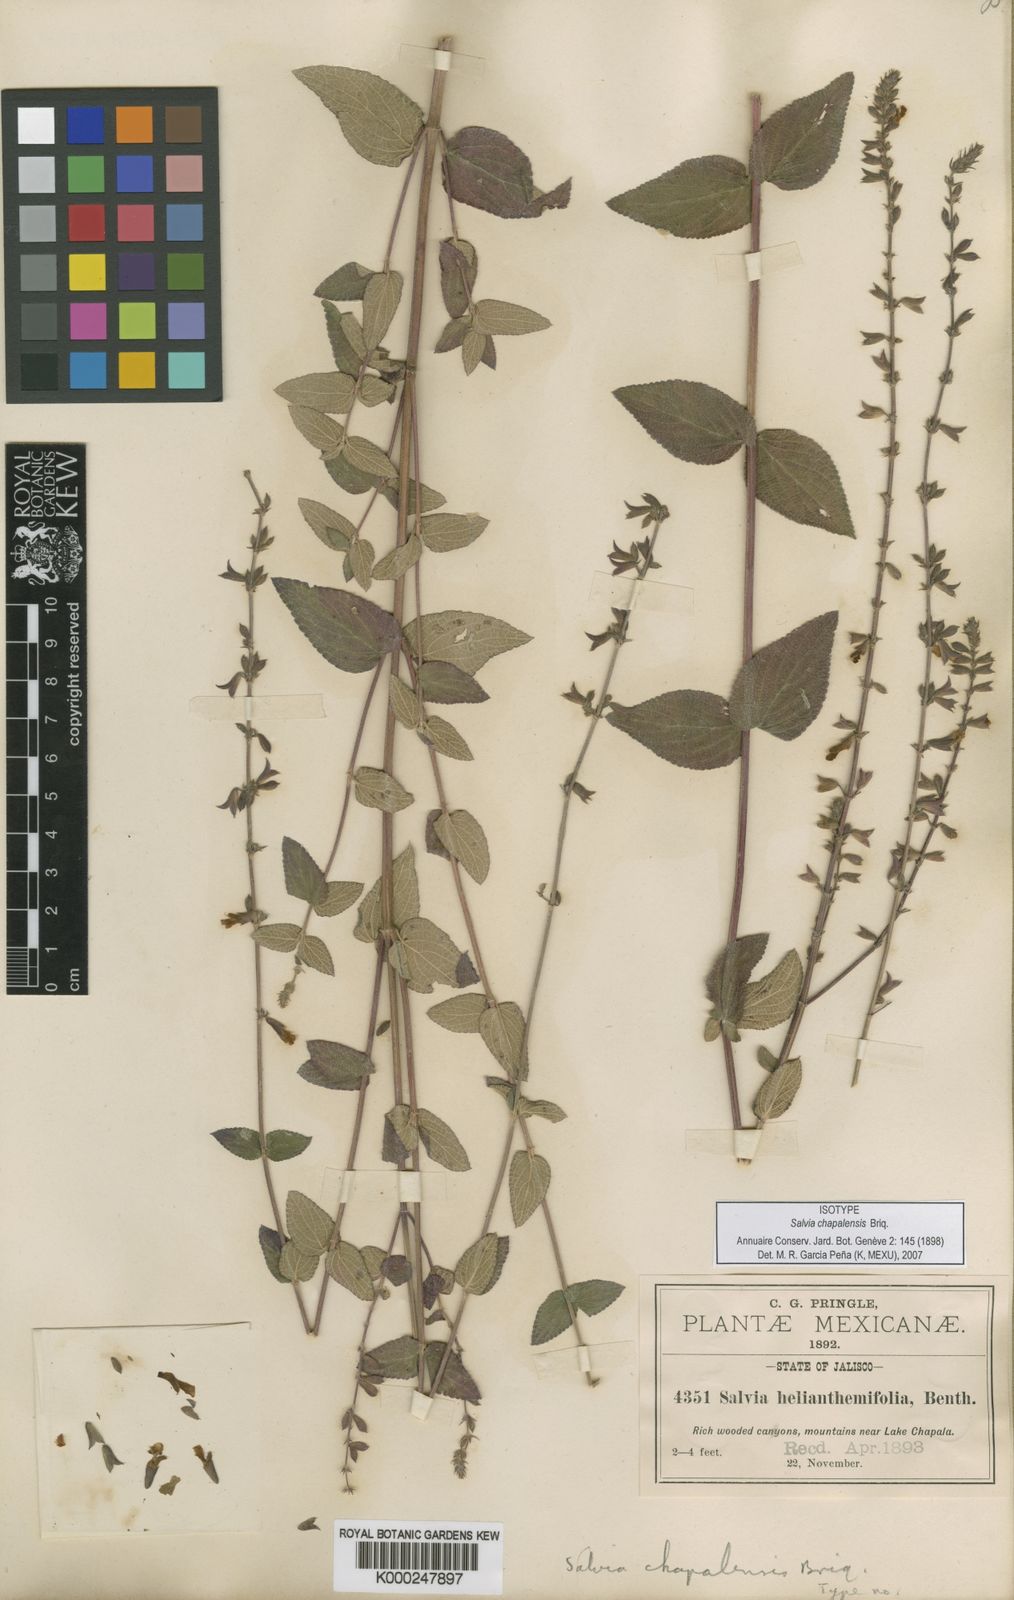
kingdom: Plantae
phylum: Tracheophyta
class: Magnoliopsida
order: Lamiales
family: Lamiaceae
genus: Salvia
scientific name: Salvia chapalensis
